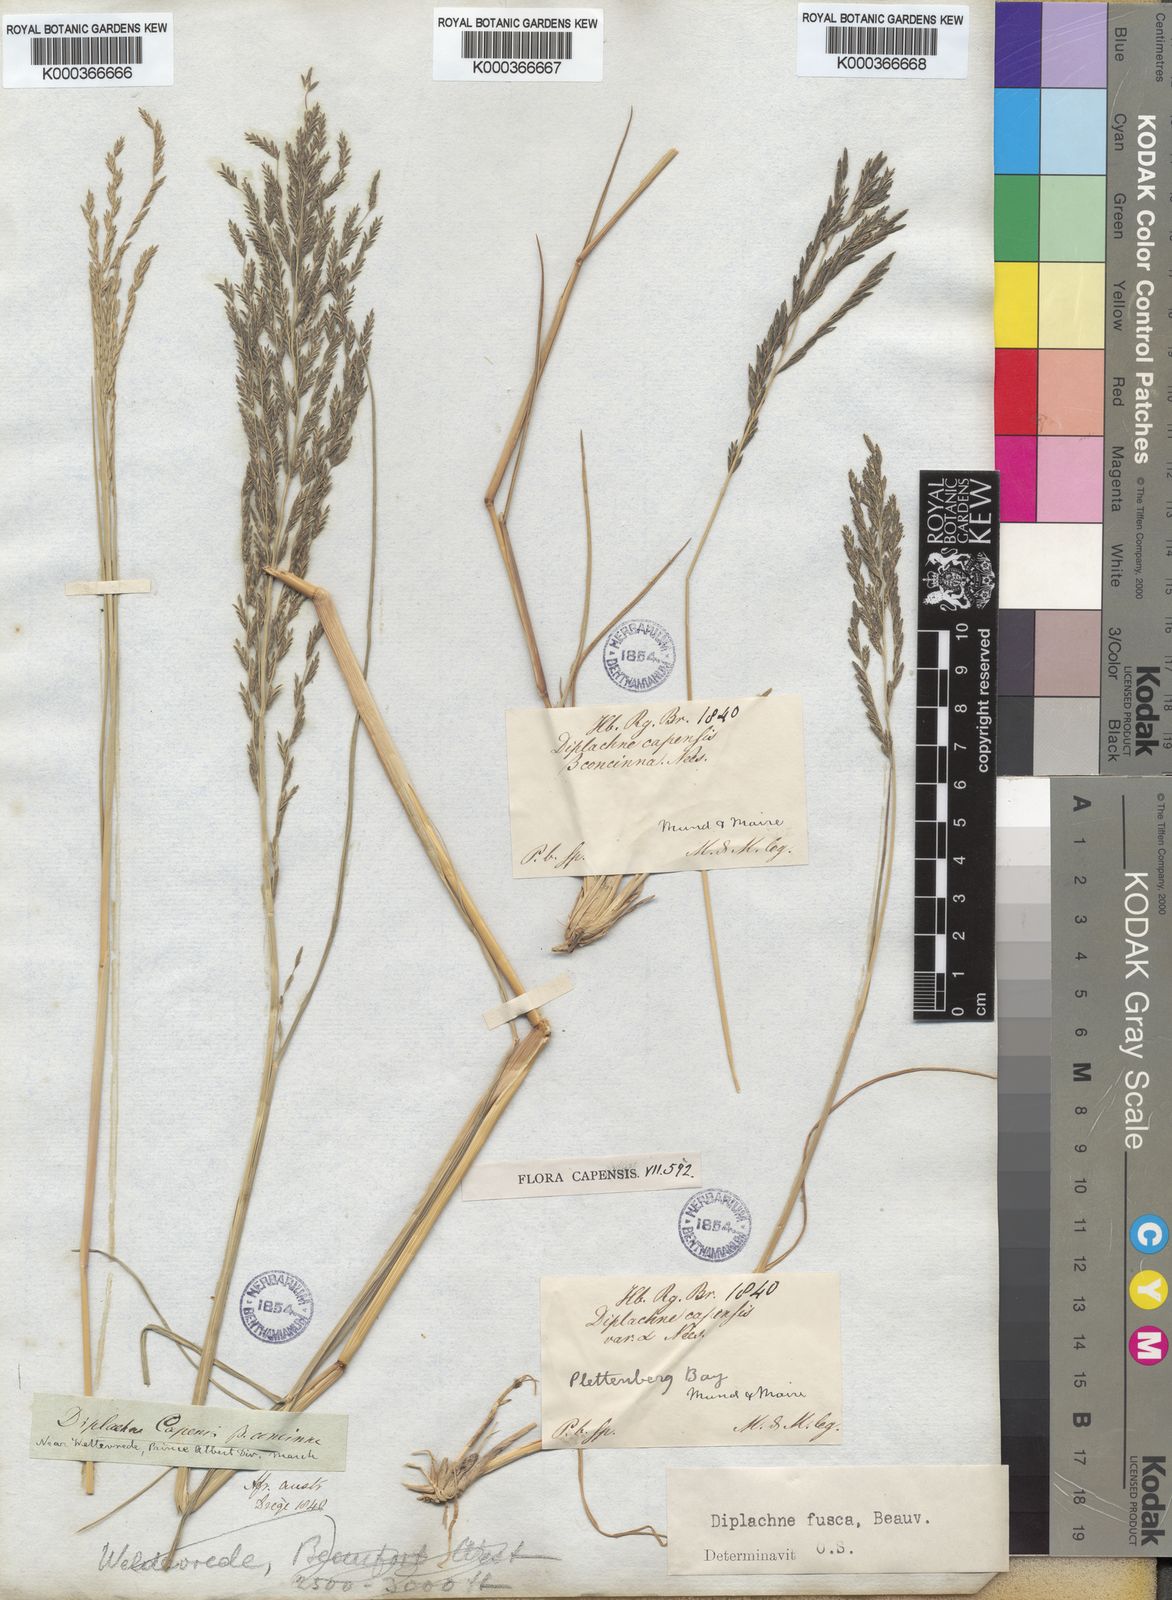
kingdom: Plantae
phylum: Tracheophyta
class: Liliopsida
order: Poales
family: Poaceae
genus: Diplachne
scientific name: Diplachne fusca
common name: Brown beetle grass
